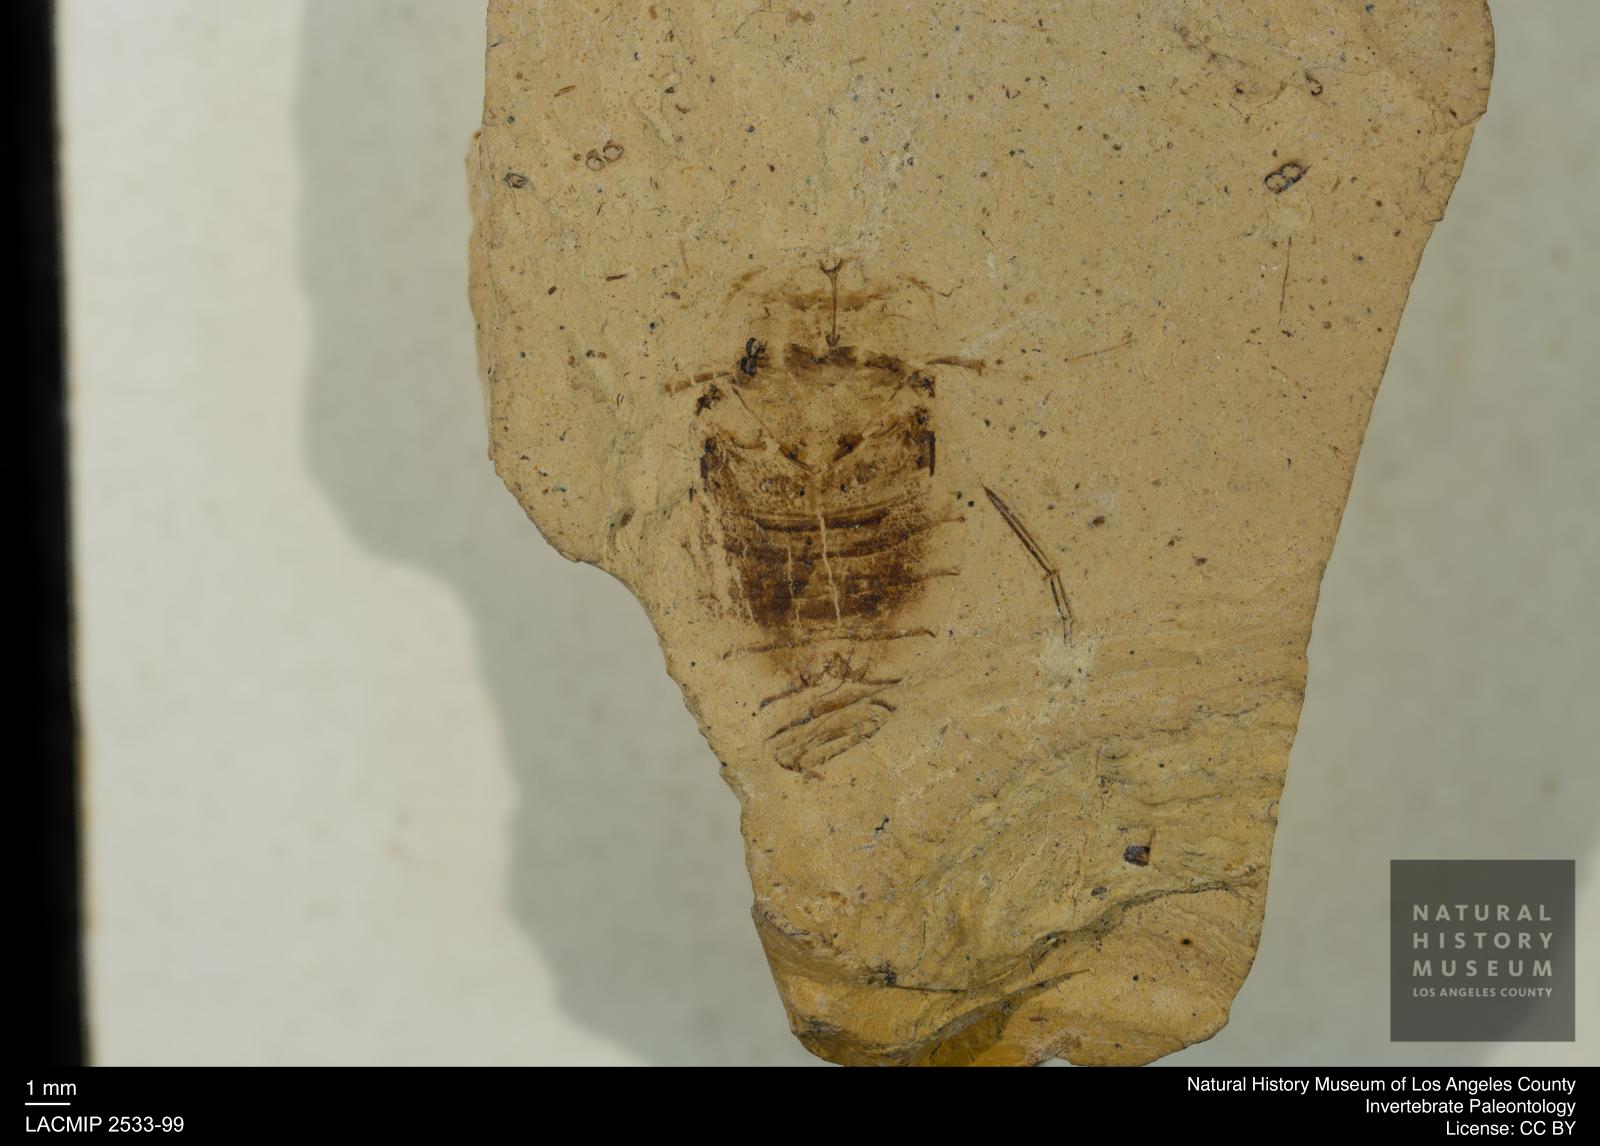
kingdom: Animalia
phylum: Arthropoda
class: Insecta
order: Hemiptera
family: Naucoridae
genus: Naucoris
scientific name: Naucoris rottensis
